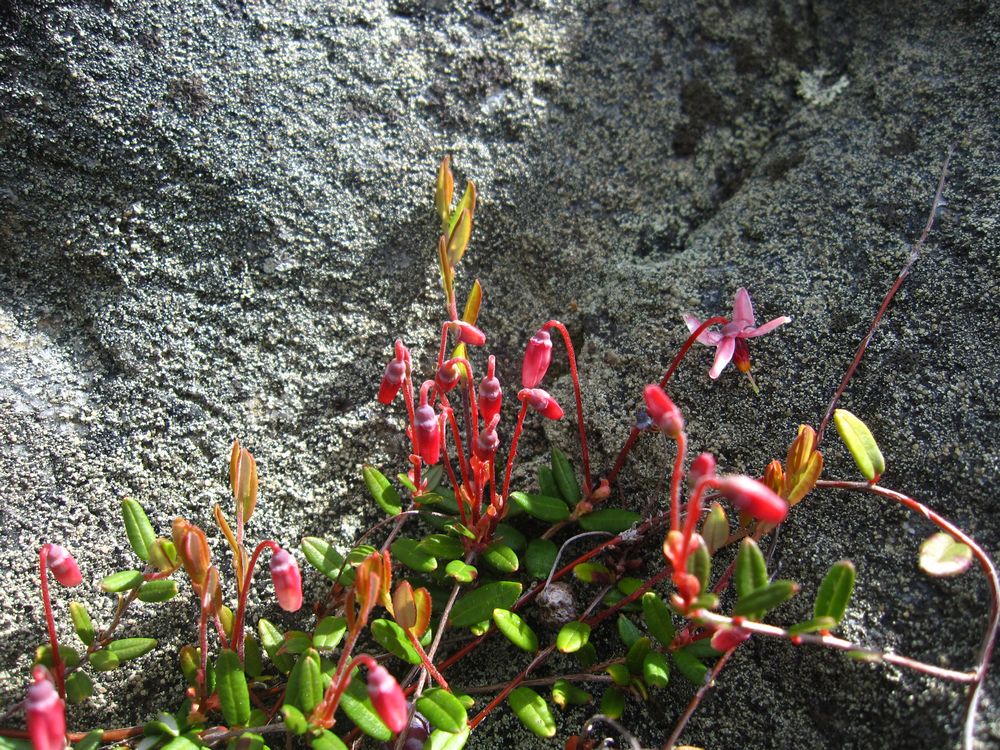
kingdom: Plantae
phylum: Tracheophyta
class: Magnoliopsida
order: Ericales
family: Ericaceae
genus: Vaccinium
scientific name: Vaccinium oxycoccos
